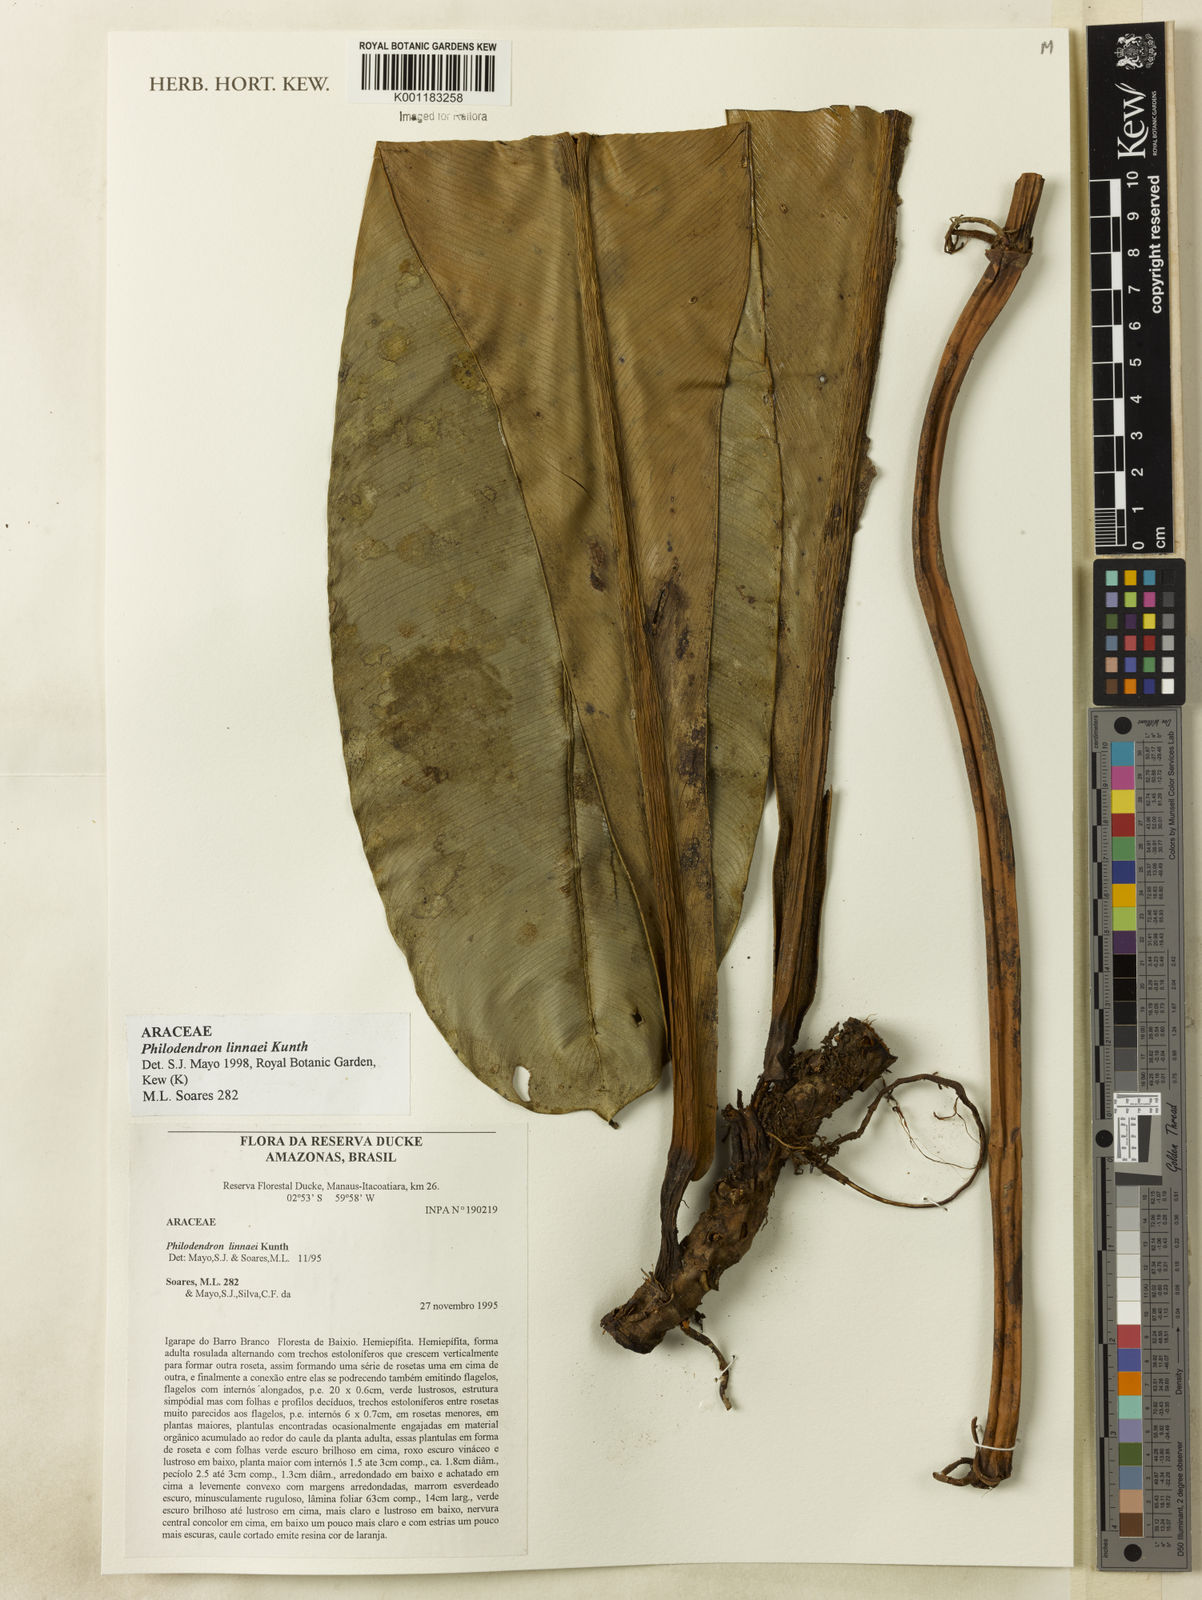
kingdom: Plantae
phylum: Tracheophyta
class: Liliopsida
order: Alismatales
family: Araceae
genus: Philodendron
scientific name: Philodendron linnaei
